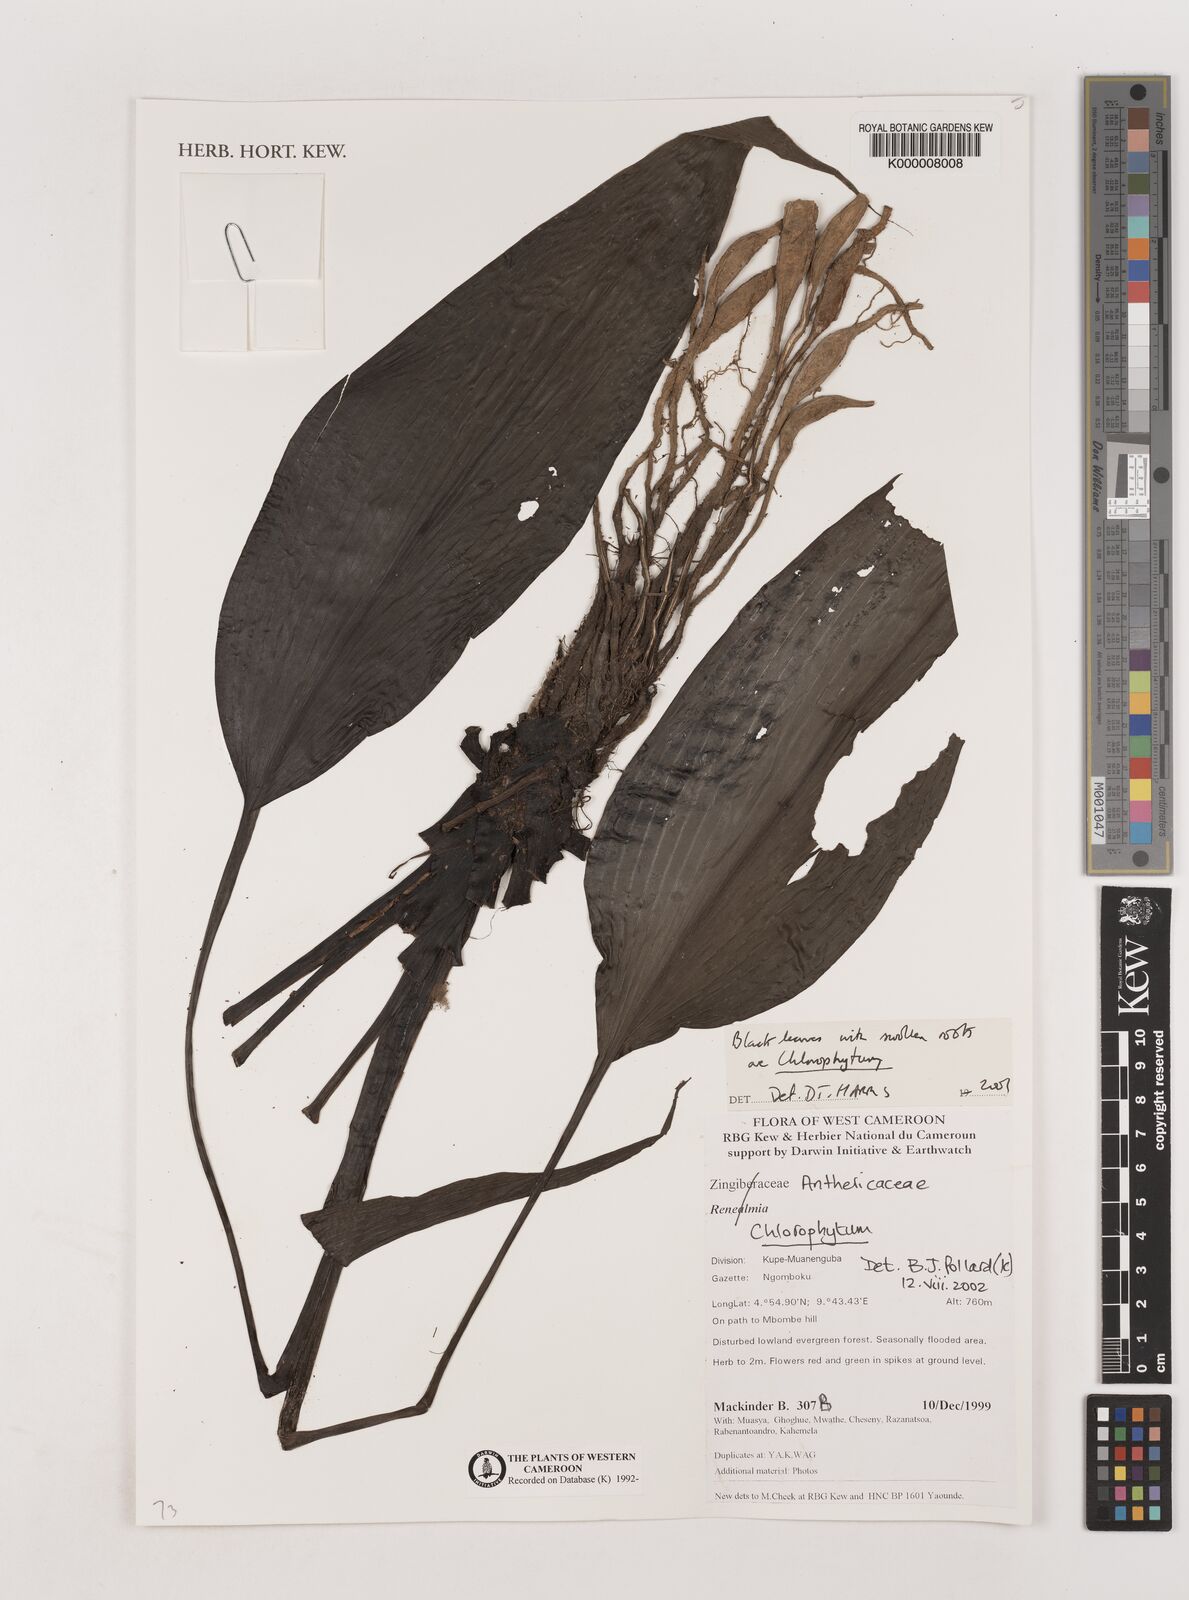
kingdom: Plantae
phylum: Tracheophyta
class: Liliopsida
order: Asparagales
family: Asparagaceae
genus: Chlorophytum
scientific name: Chlorophytum
